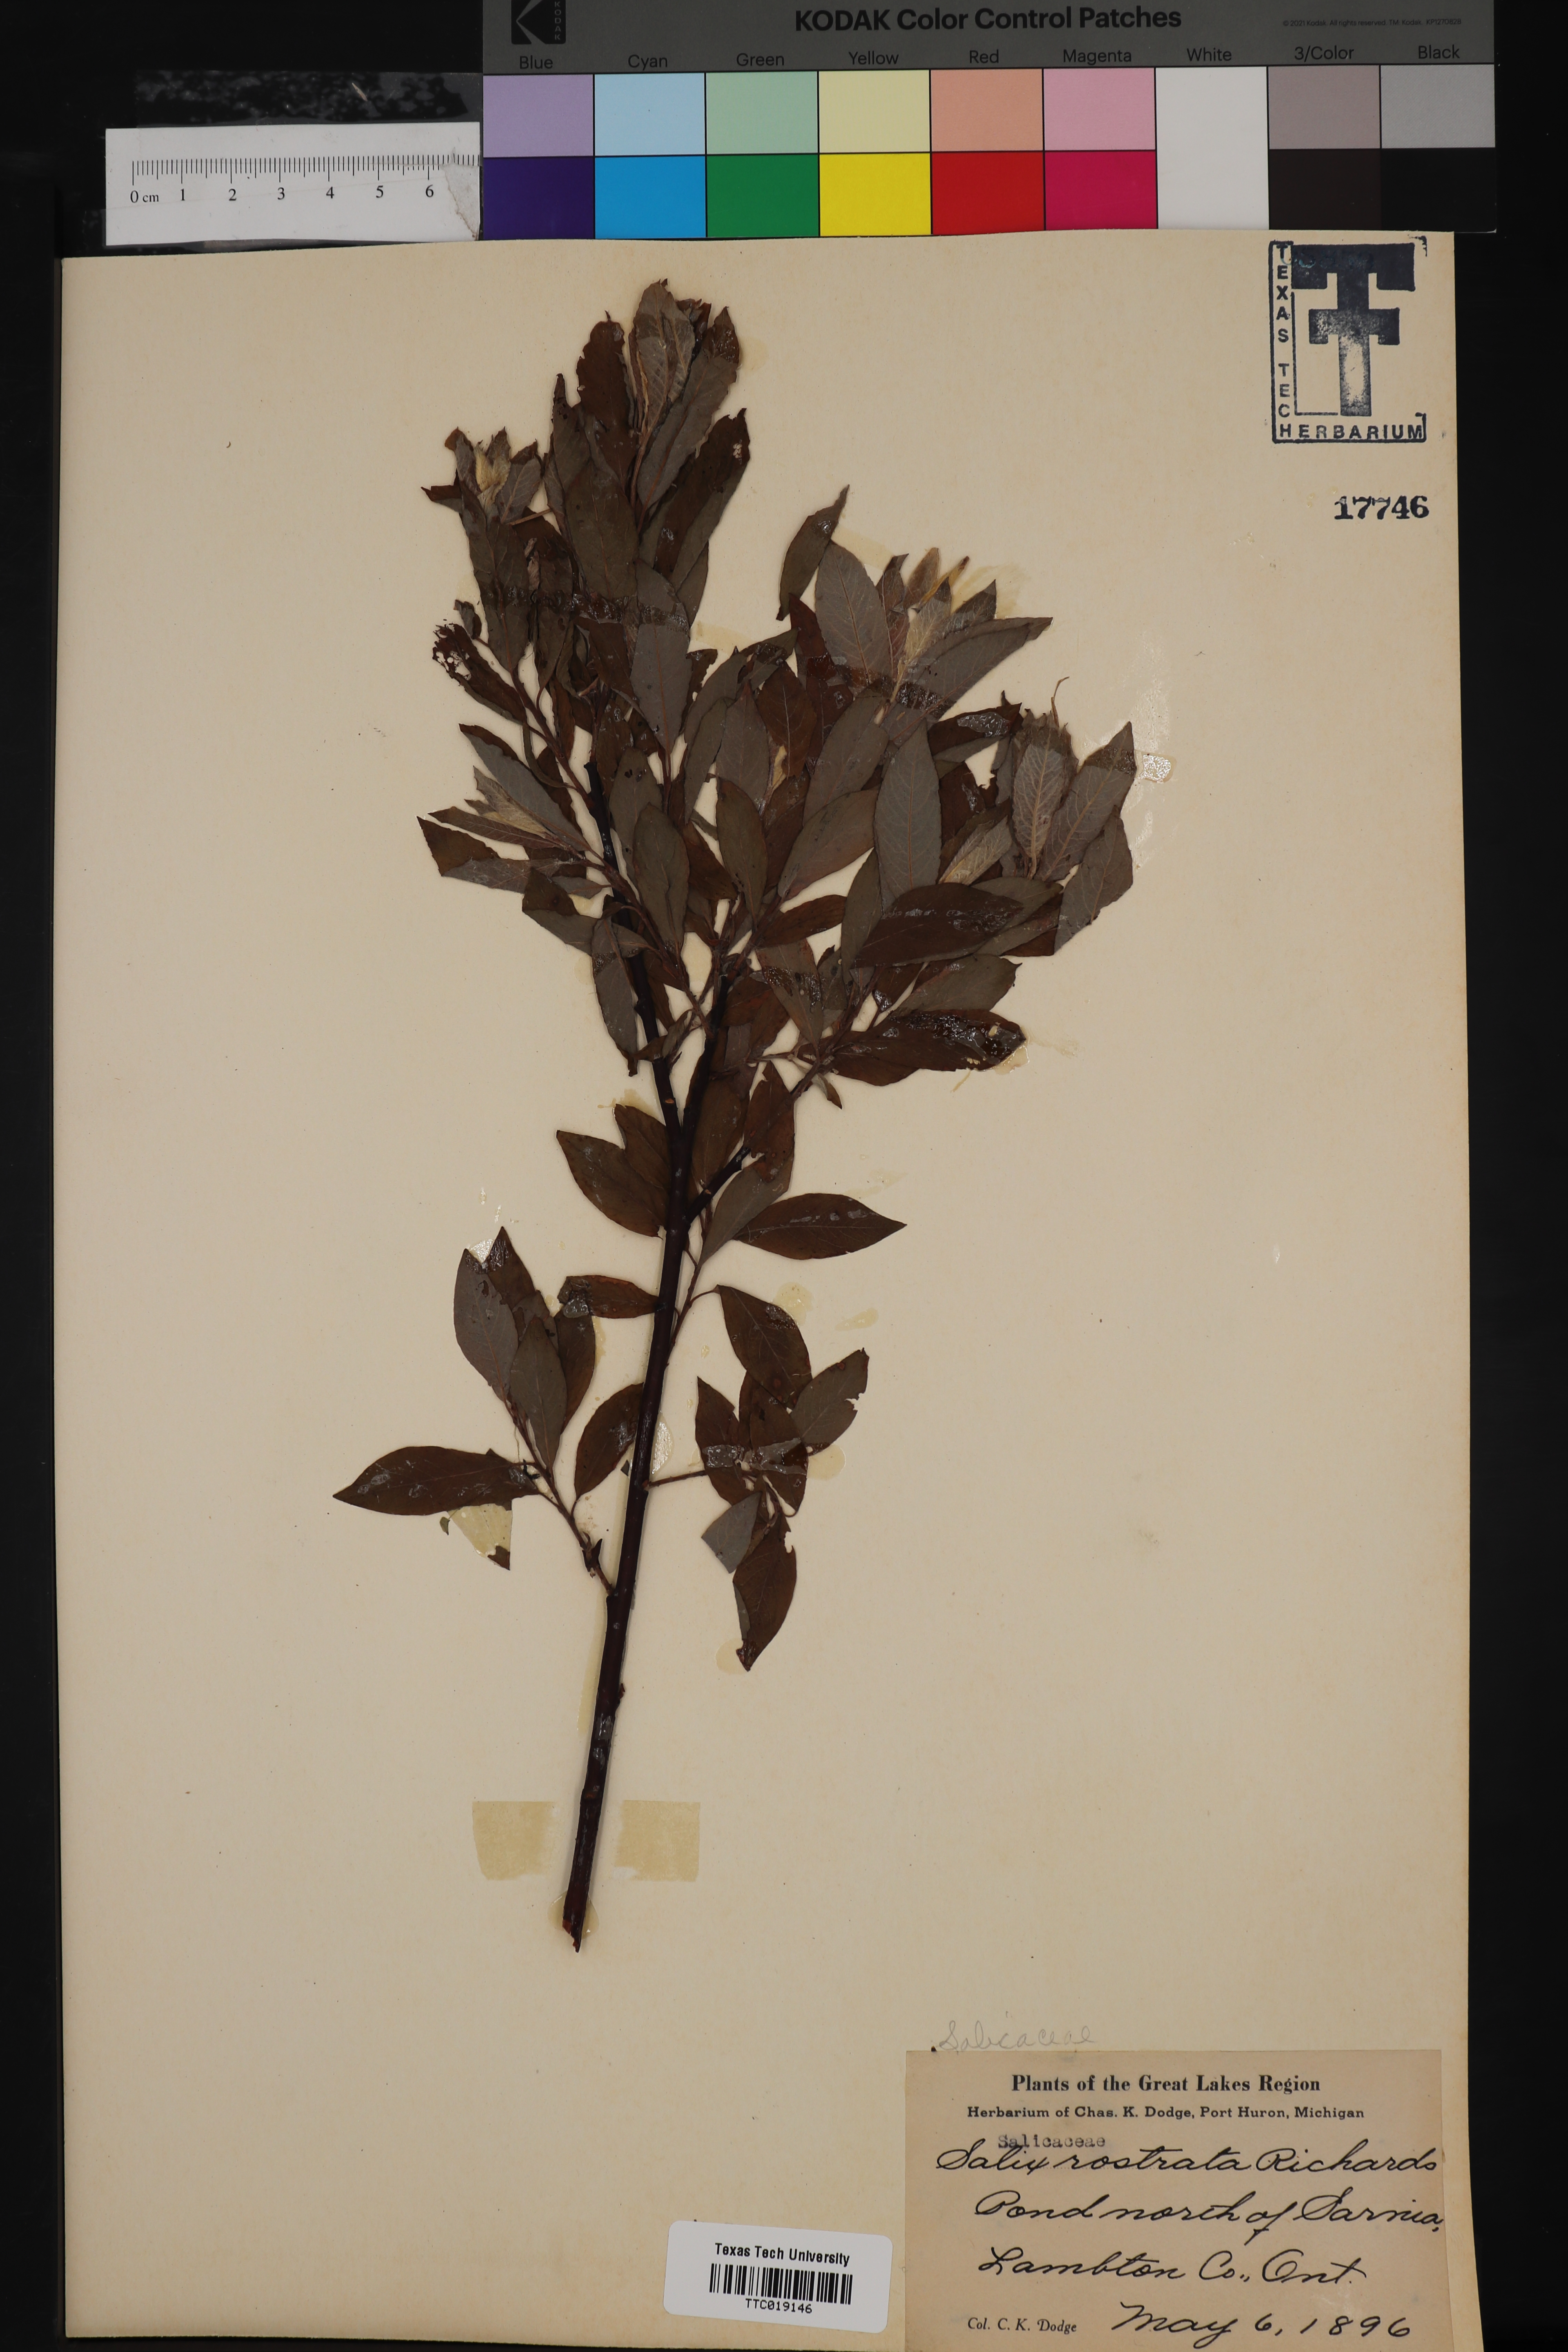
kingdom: Plantae
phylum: Tracheophyta
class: Magnoliopsida
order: Malpighiales
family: Salicaceae
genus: Salix
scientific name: Salix bebbiana
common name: Bebb's willow
